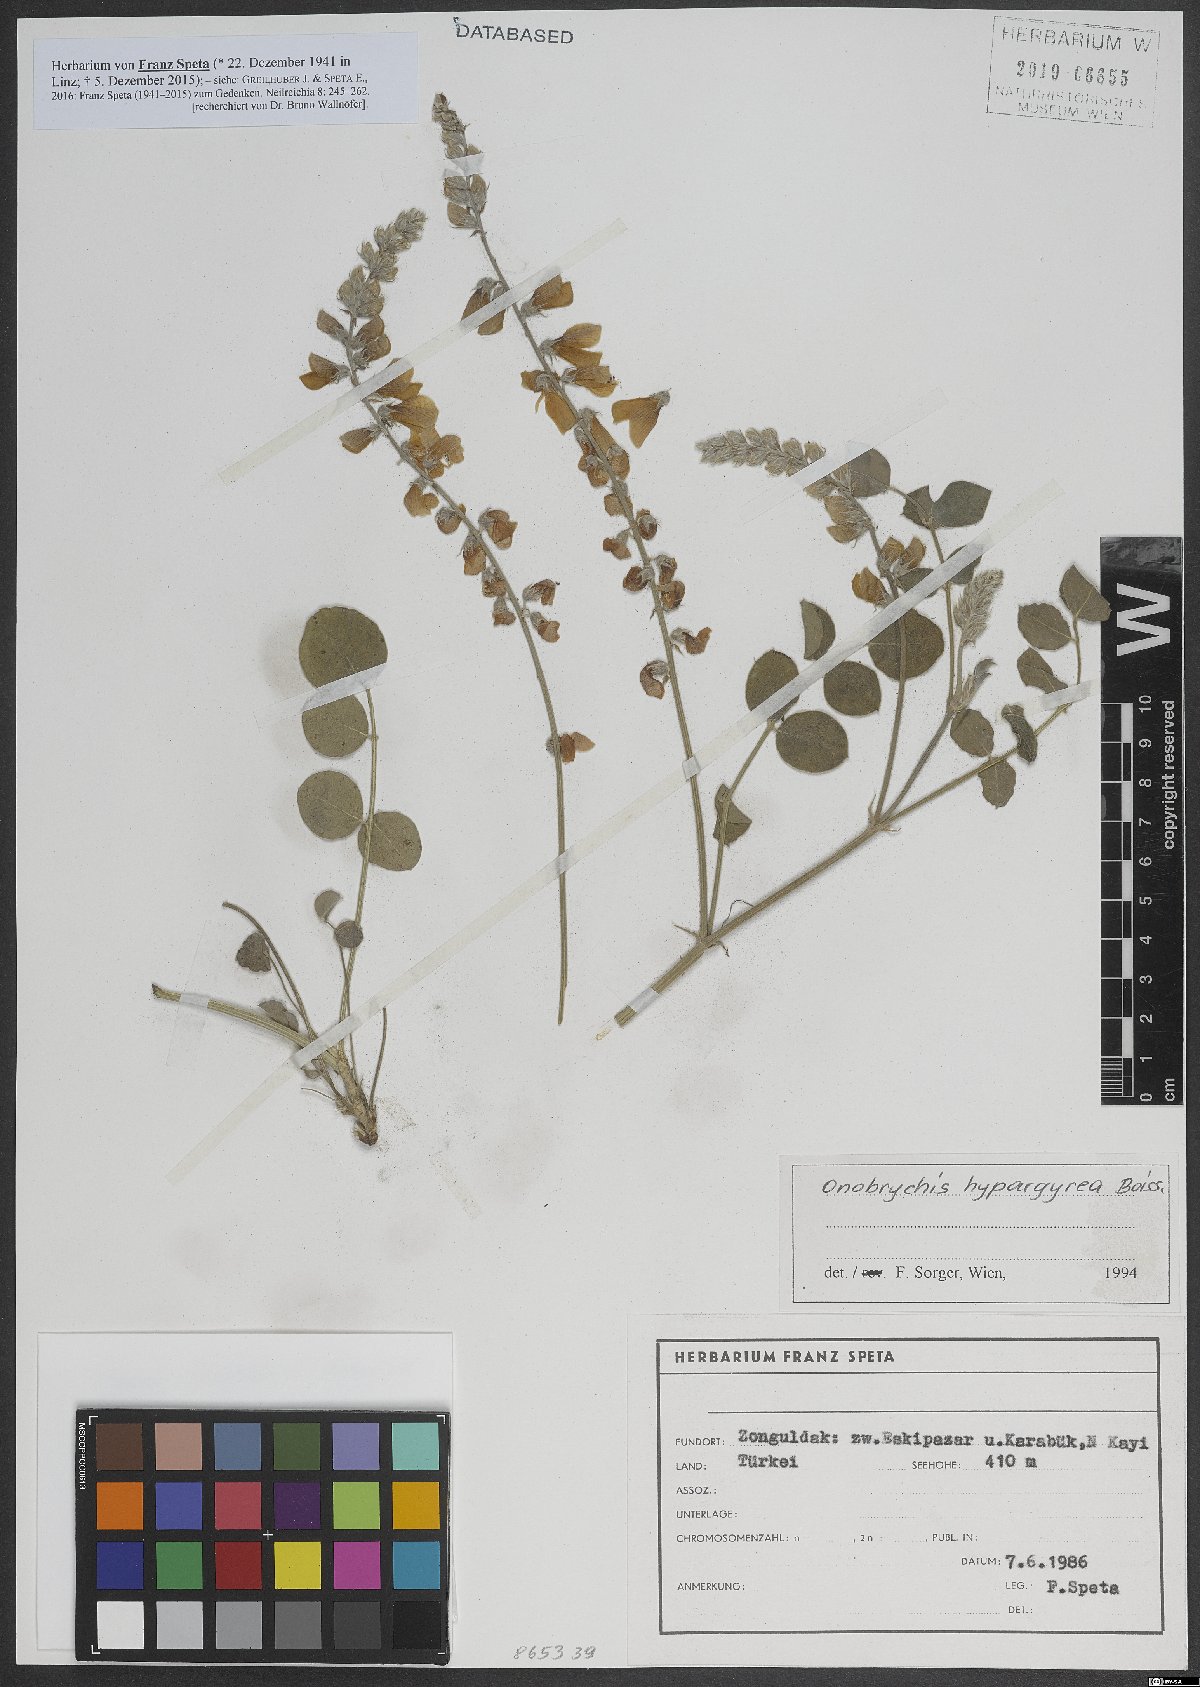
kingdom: Plantae
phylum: Tracheophyta
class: Magnoliopsida
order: Fabales
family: Fabaceae
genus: Onobrychis
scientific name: Onobrychis hypargyrea
